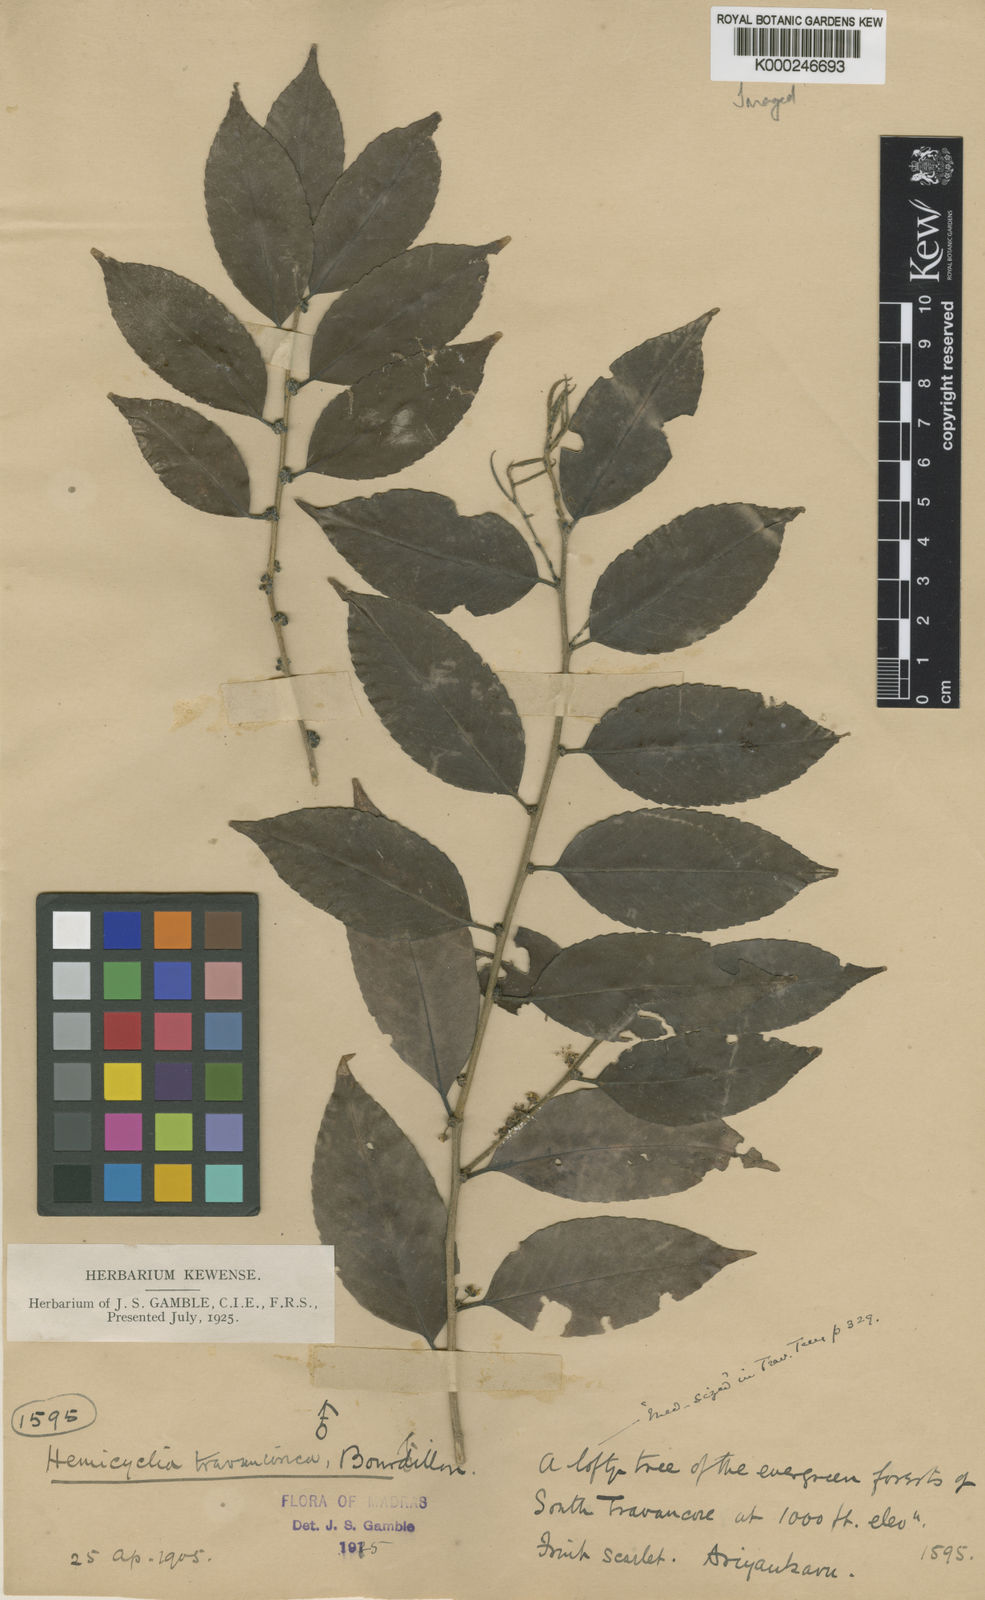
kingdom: Plantae
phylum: Tracheophyta
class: Magnoliopsida
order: Malpighiales
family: Putranjivaceae
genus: Drypetes
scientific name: Drypetes gardneri
